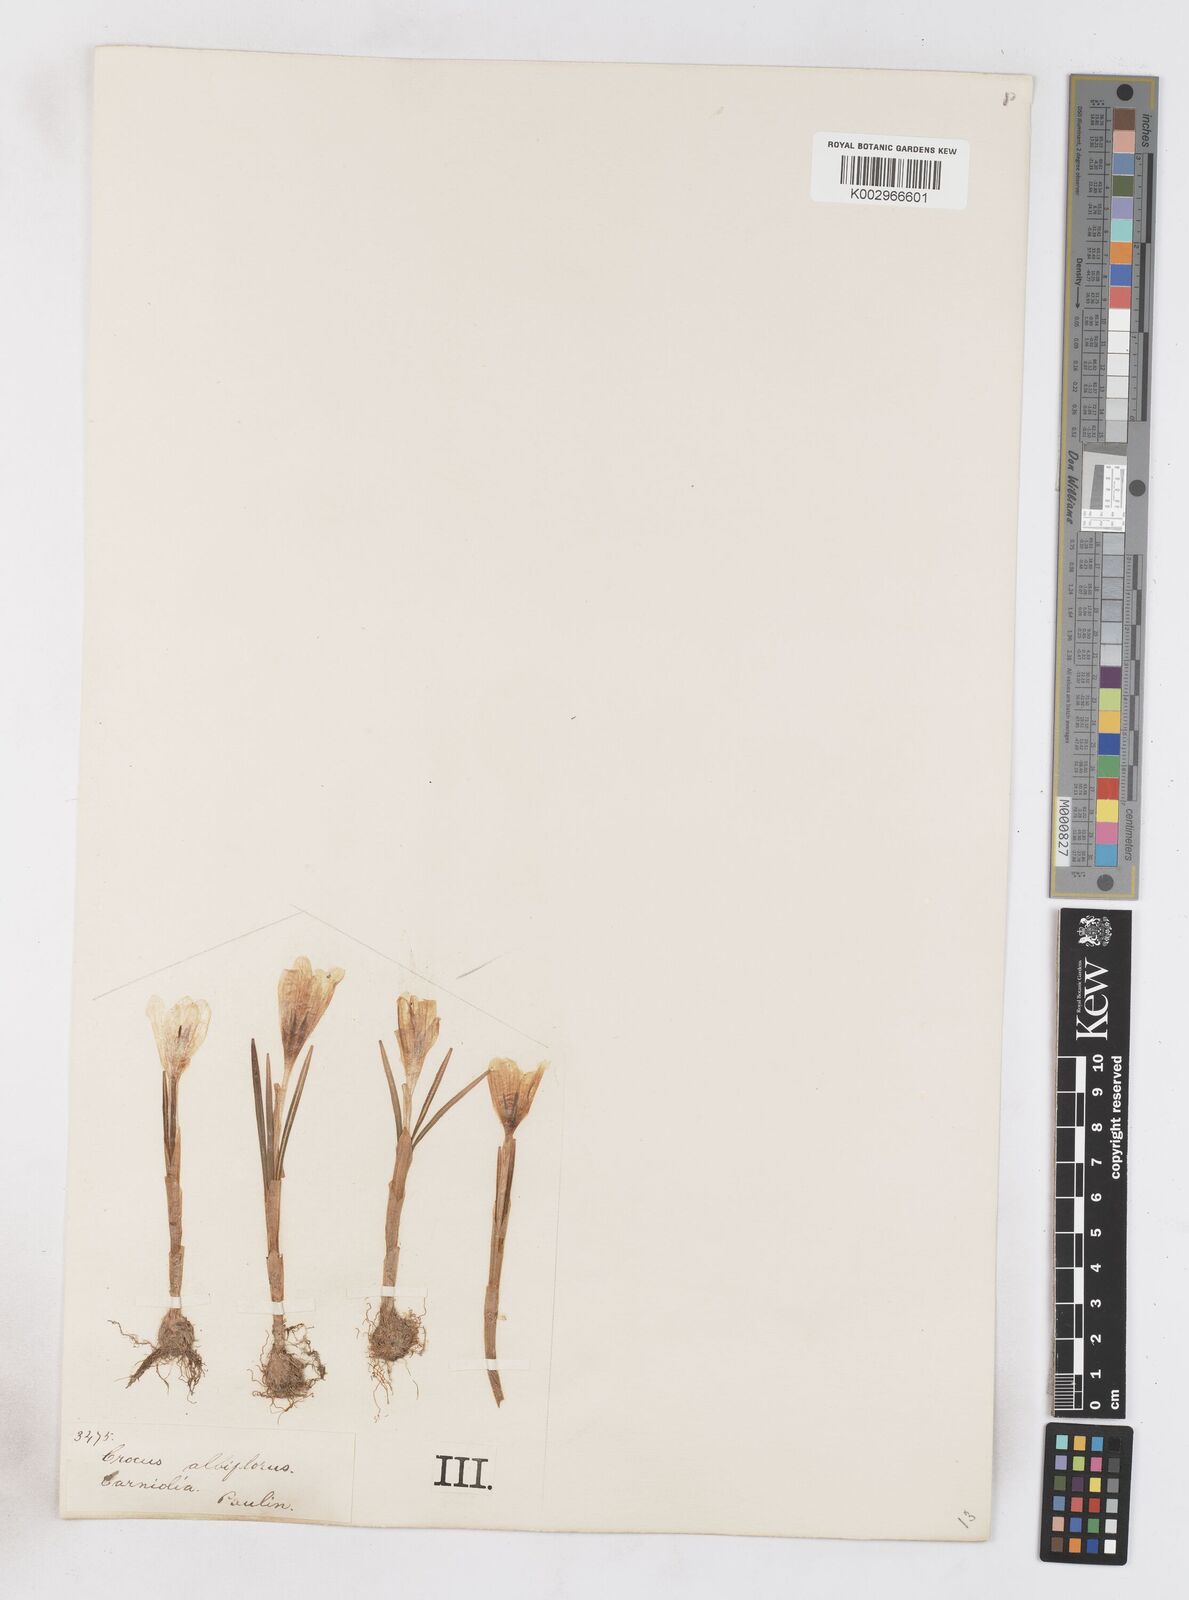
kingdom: Plantae
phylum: Tracheophyta
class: Liliopsida
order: Asparagales
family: Iridaceae
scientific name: Iridaceae
